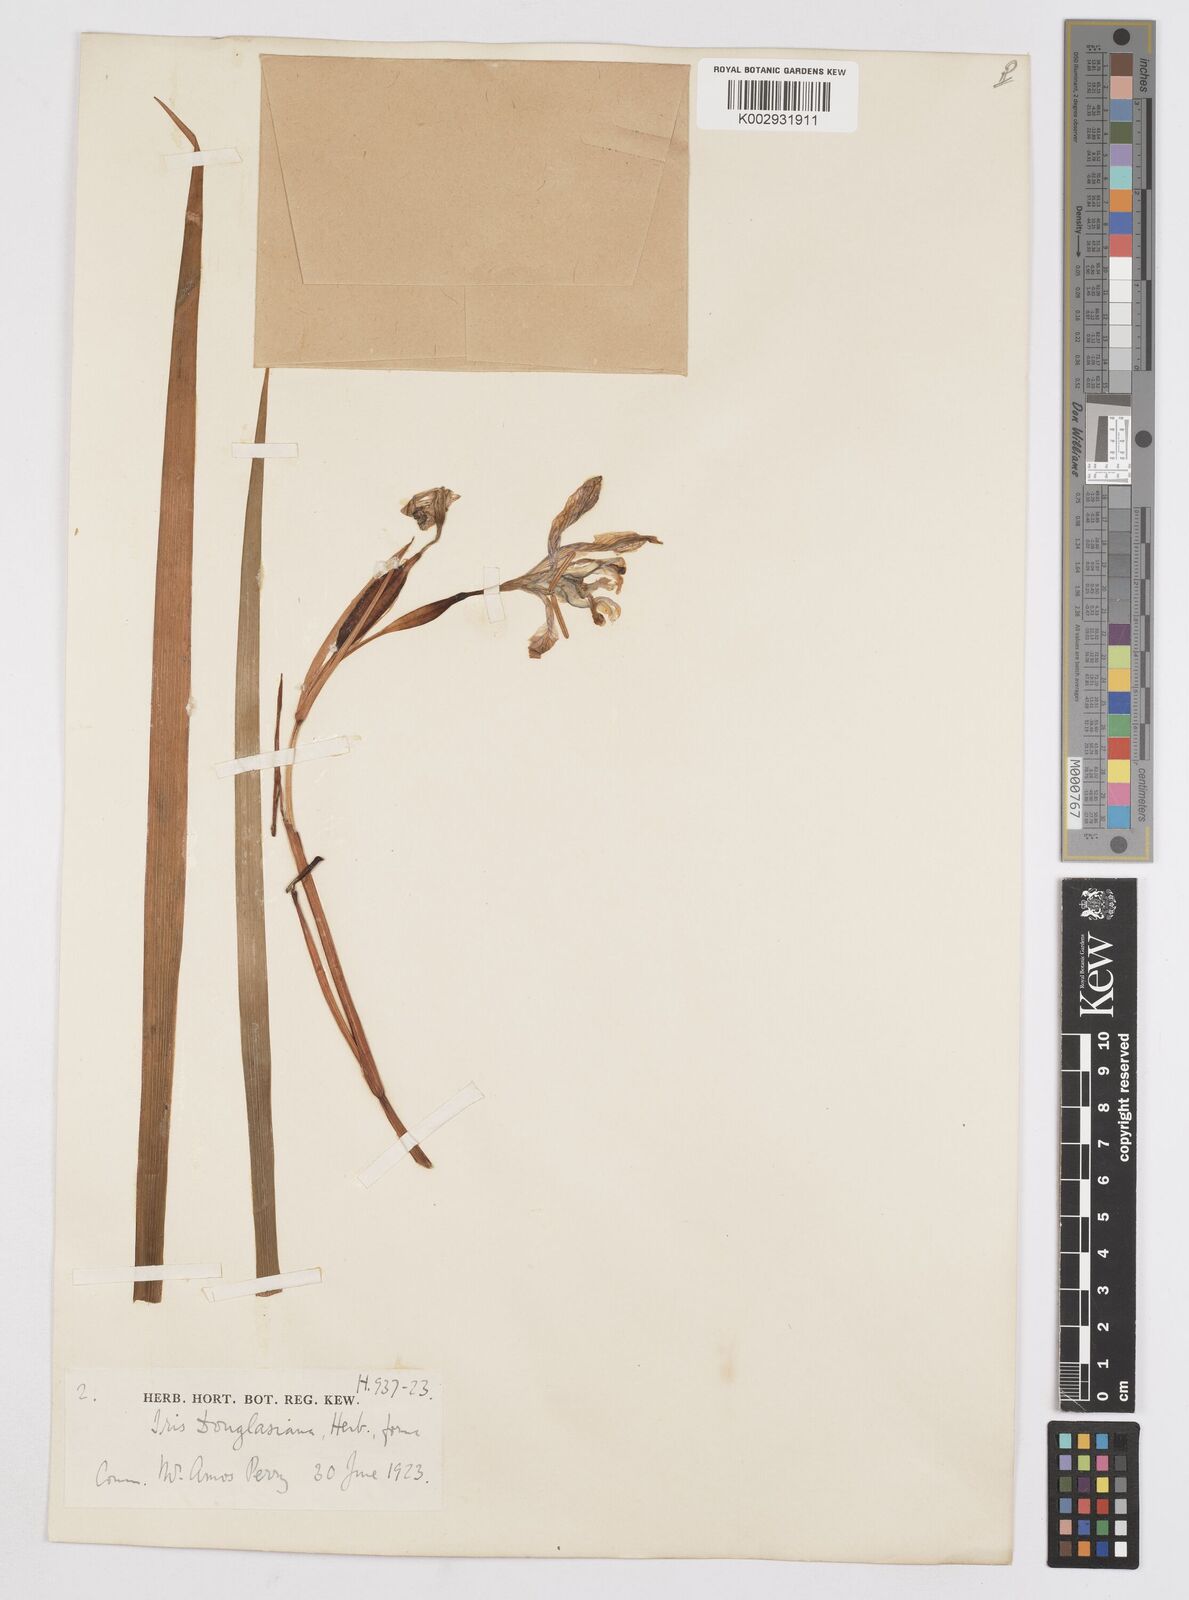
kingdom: Plantae
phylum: Tracheophyta
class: Liliopsida
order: Asparagales
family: Iridaceae
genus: Iris
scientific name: Iris douglasiana
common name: Marin iris
